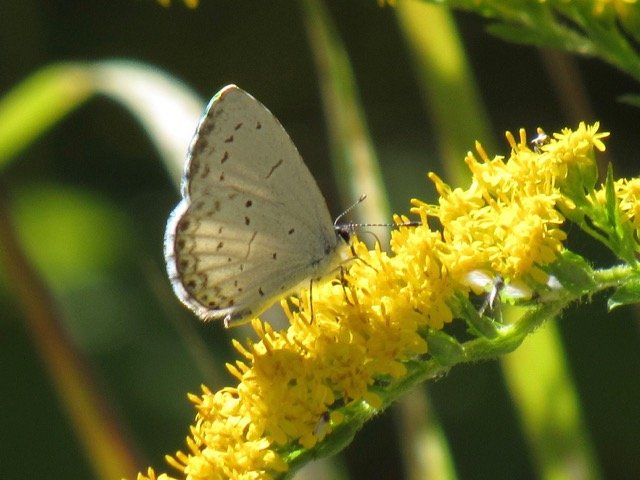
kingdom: Animalia
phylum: Arthropoda
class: Insecta
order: Lepidoptera
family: Lycaenidae
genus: Celastrina
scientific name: Celastrina
